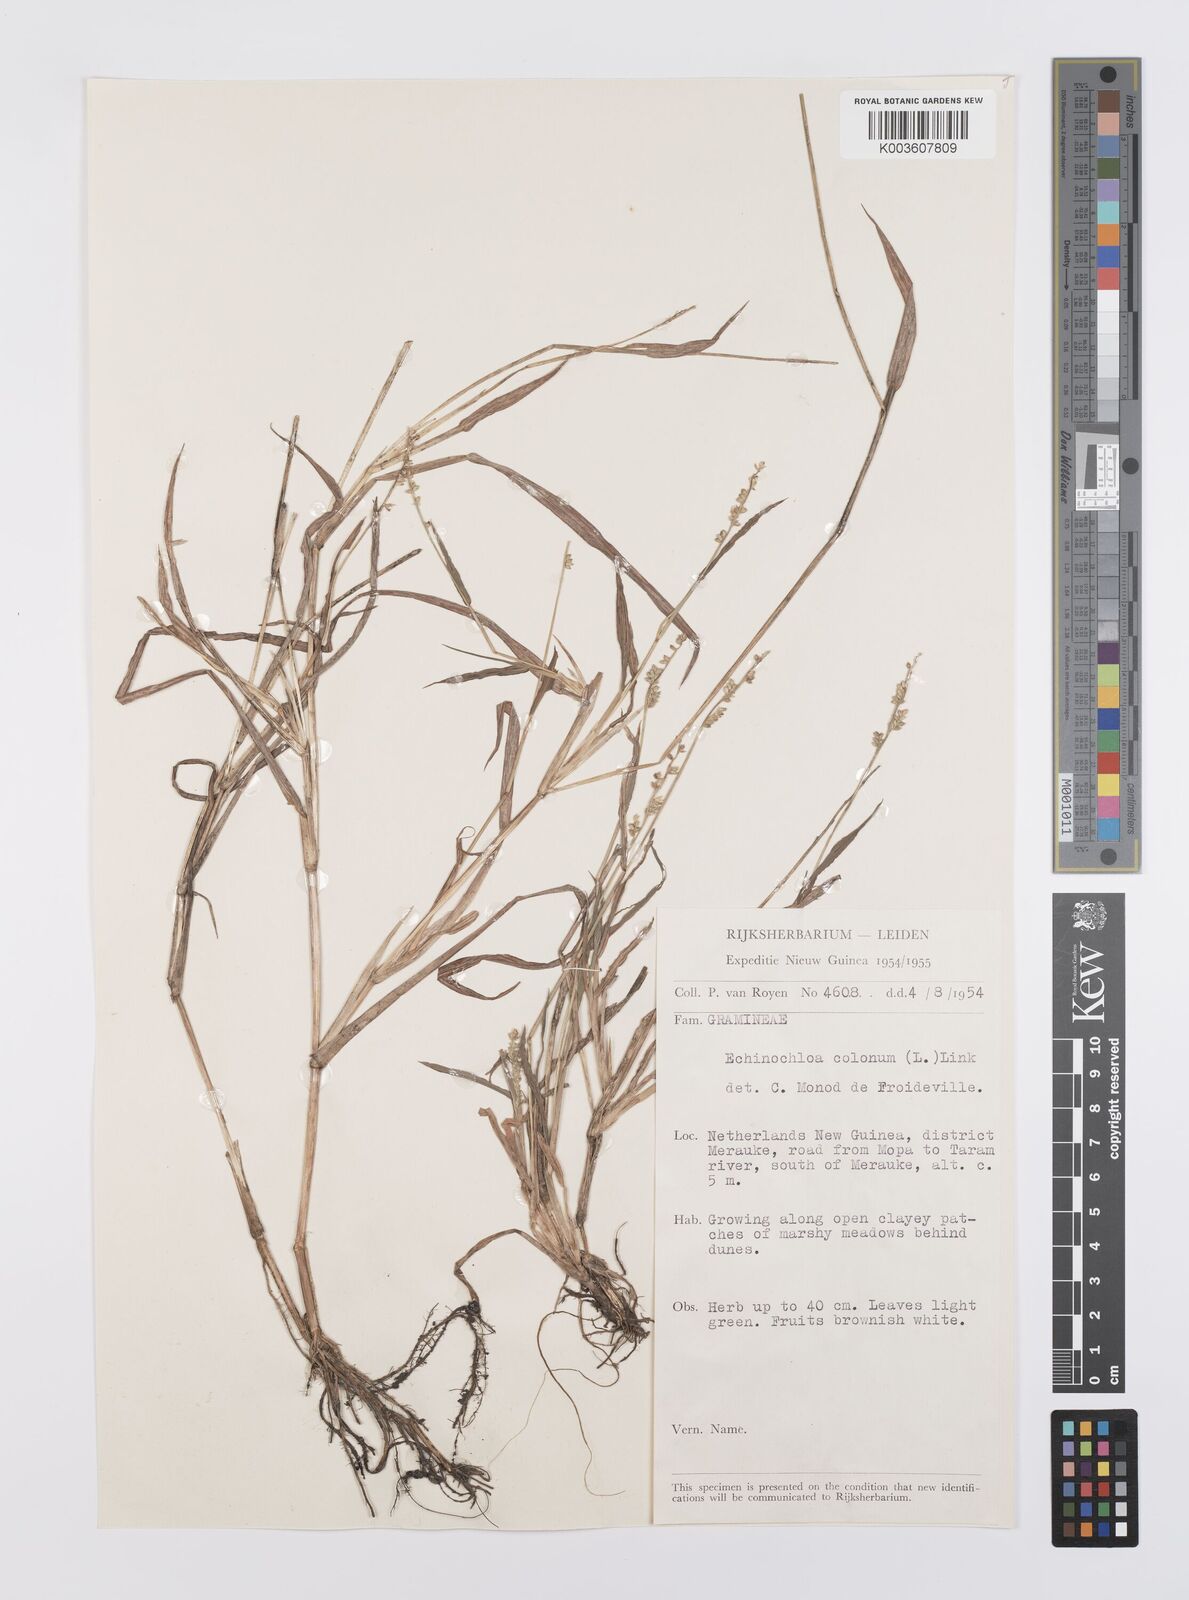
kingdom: Plantae
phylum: Tracheophyta
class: Liliopsida
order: Poales
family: Poaceae
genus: Echinochloa
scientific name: Echinochloa colonum
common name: Jungle rice
